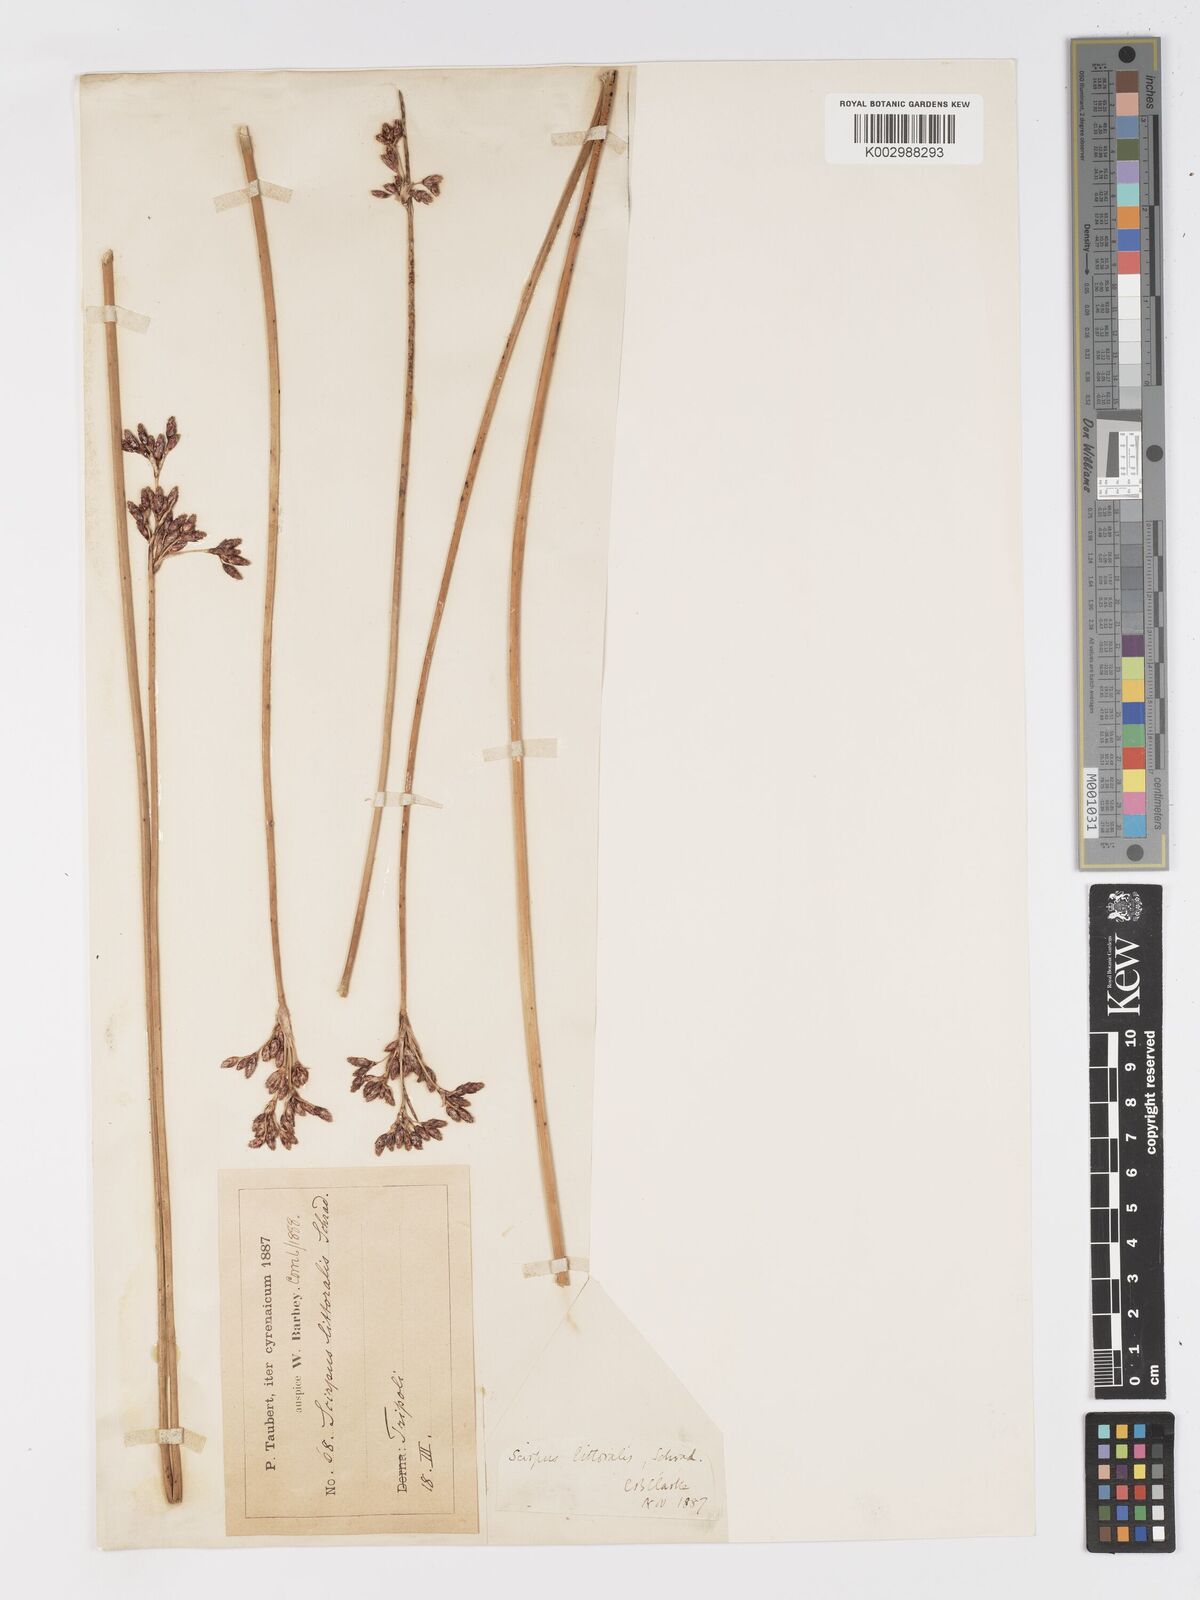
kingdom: Plantae
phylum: Tracheophyta
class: Liliopsida
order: Poales
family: Cyperaceae
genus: Schoenoplectus
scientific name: Schoenoplectus litoralis
